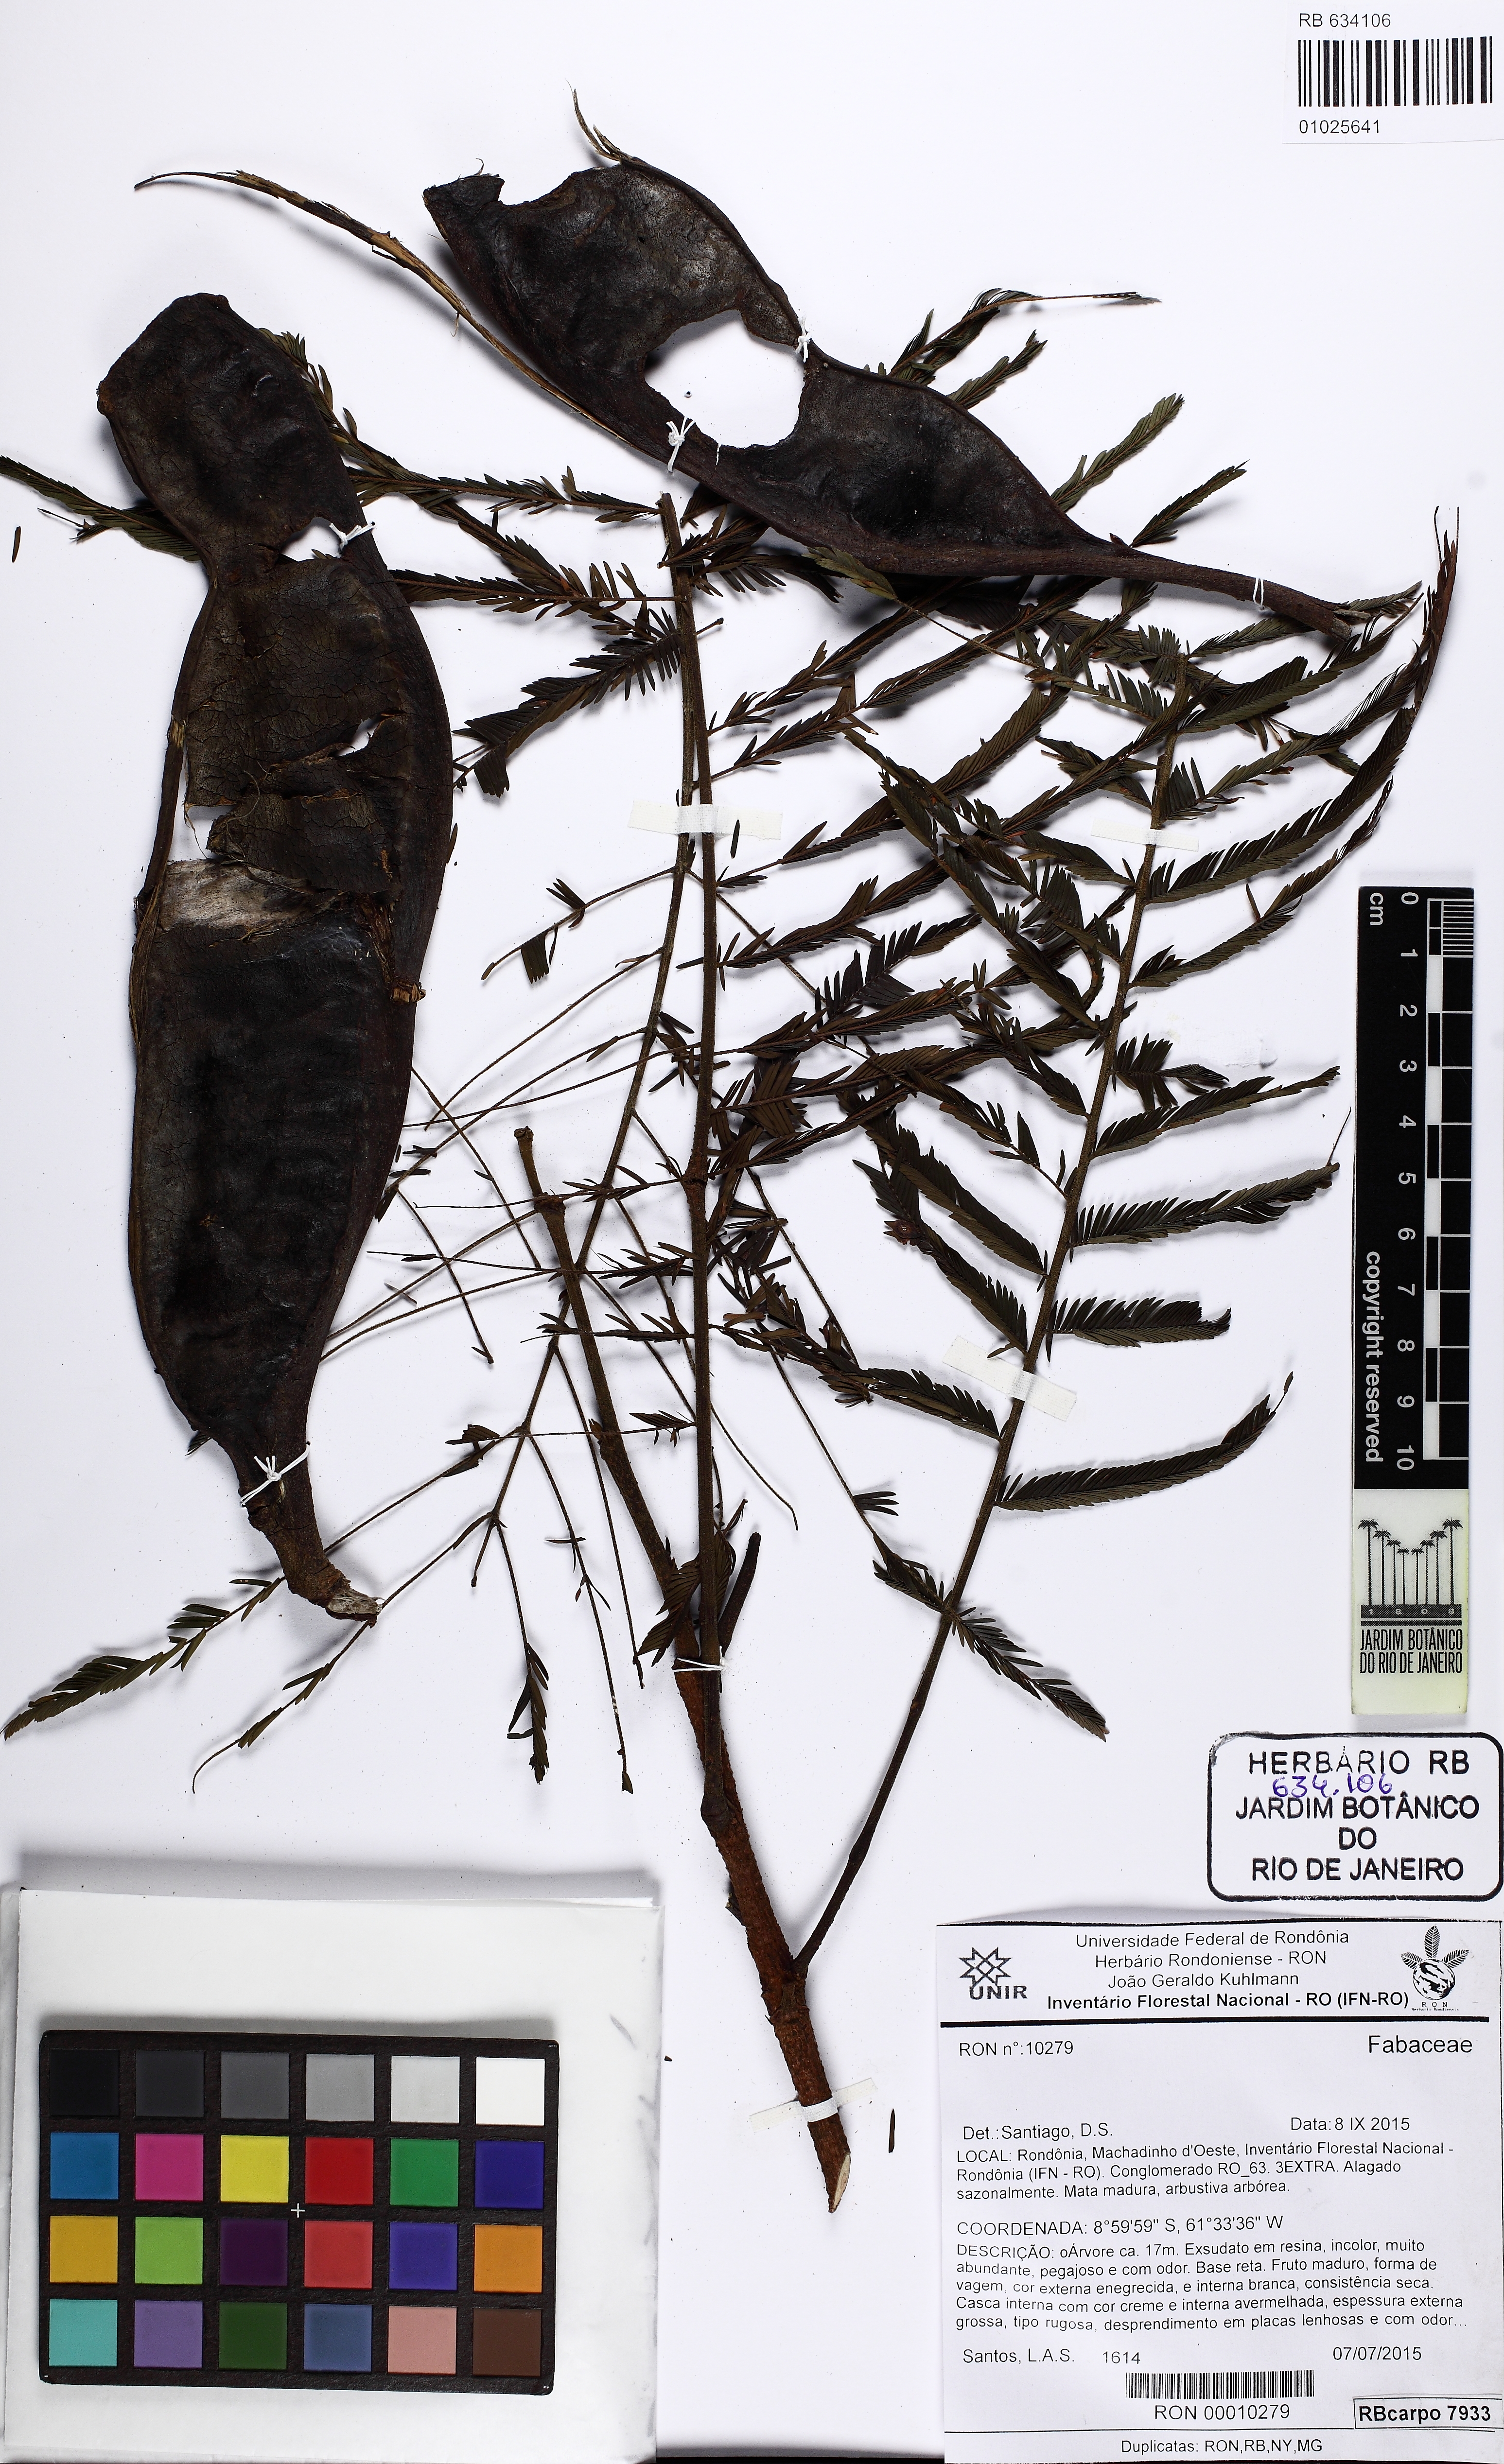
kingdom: Plantae
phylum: Tracheophyta
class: Magnoliopsida
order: Fabales
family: Fabaceae
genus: Parkia
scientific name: Parkia
